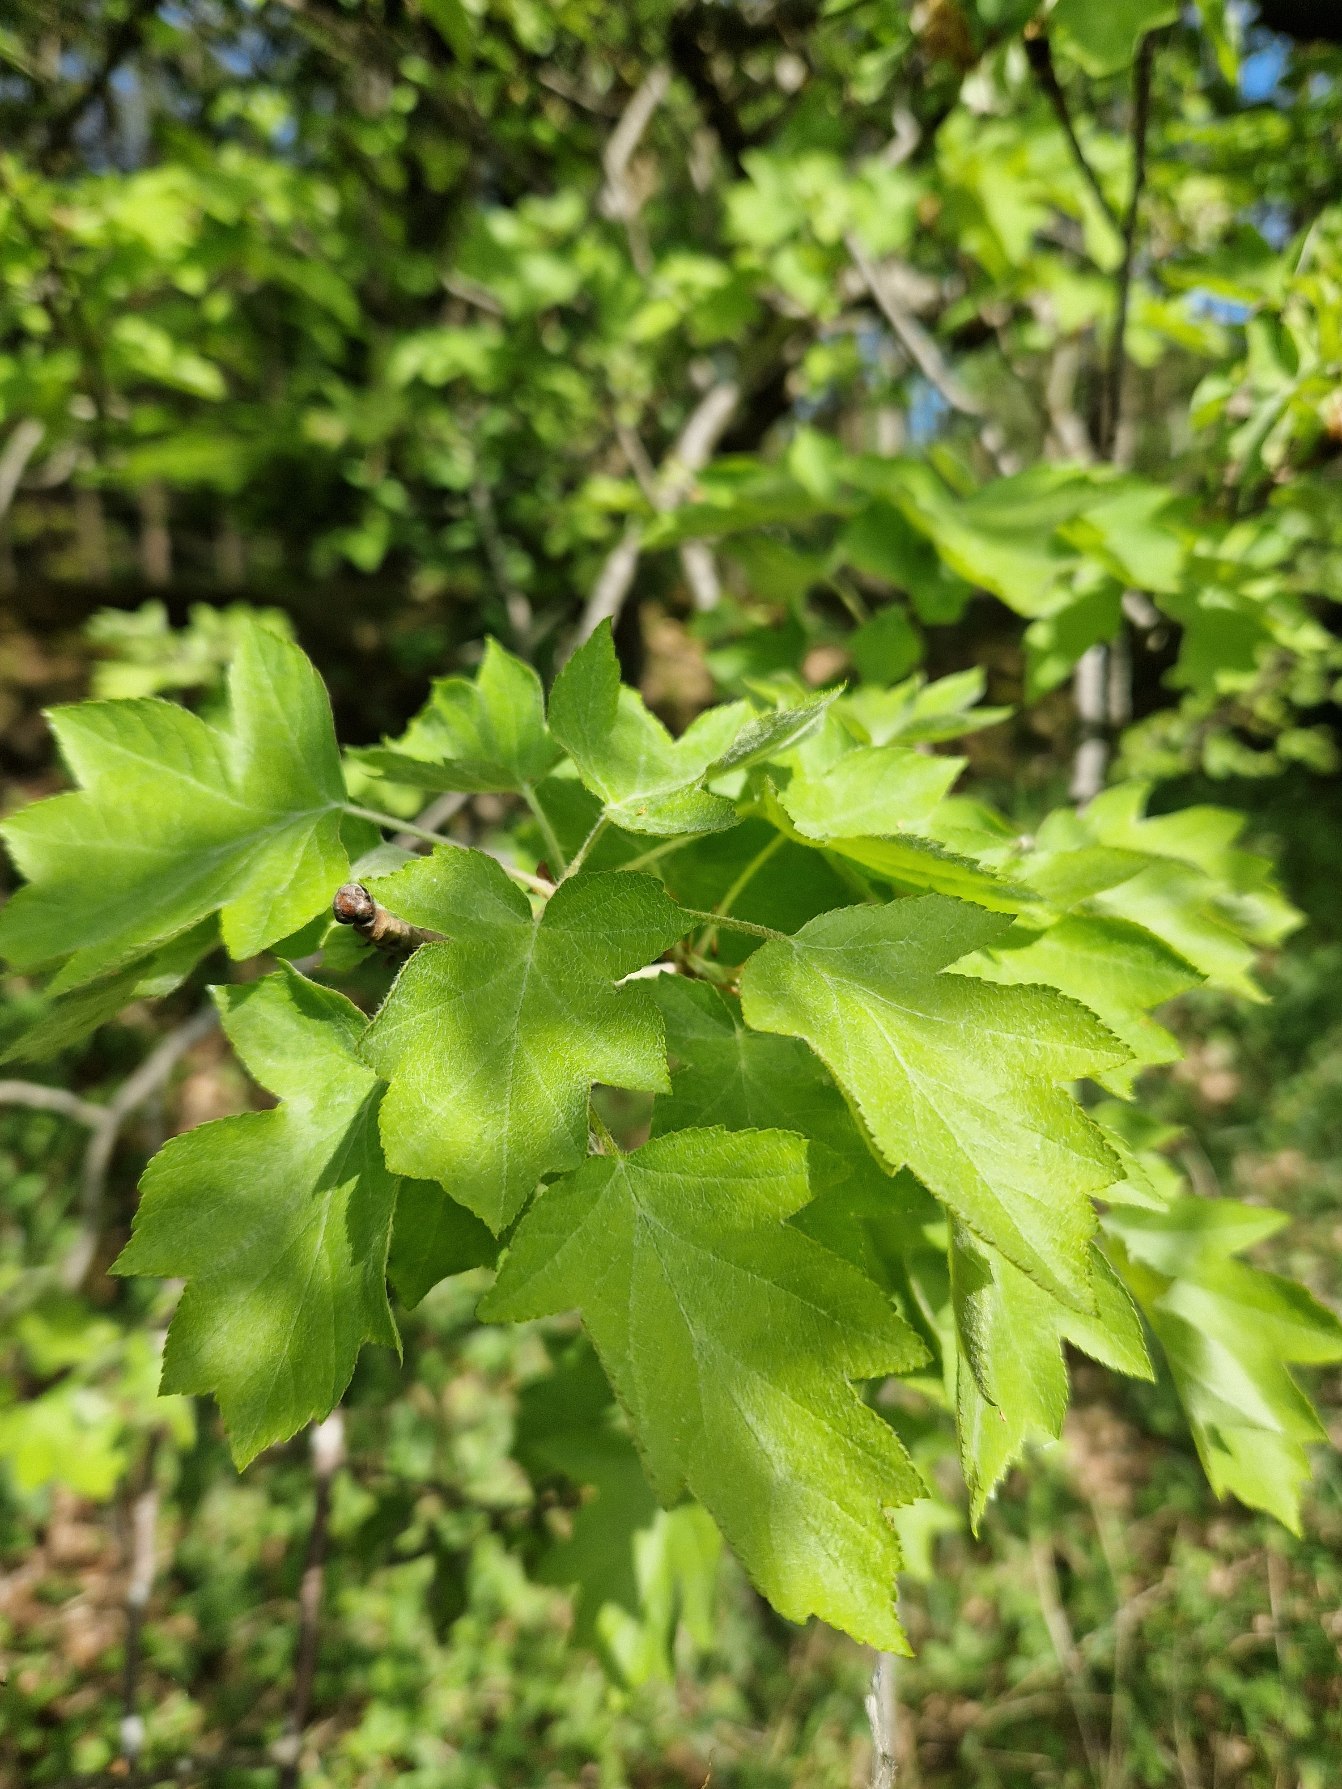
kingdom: Plantae
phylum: Tracheophyta
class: Magnoliopsida
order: Rosales
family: Rosaceae
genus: Torminalis
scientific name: Torminalis glaberrima
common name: Tarmvrid-røn
